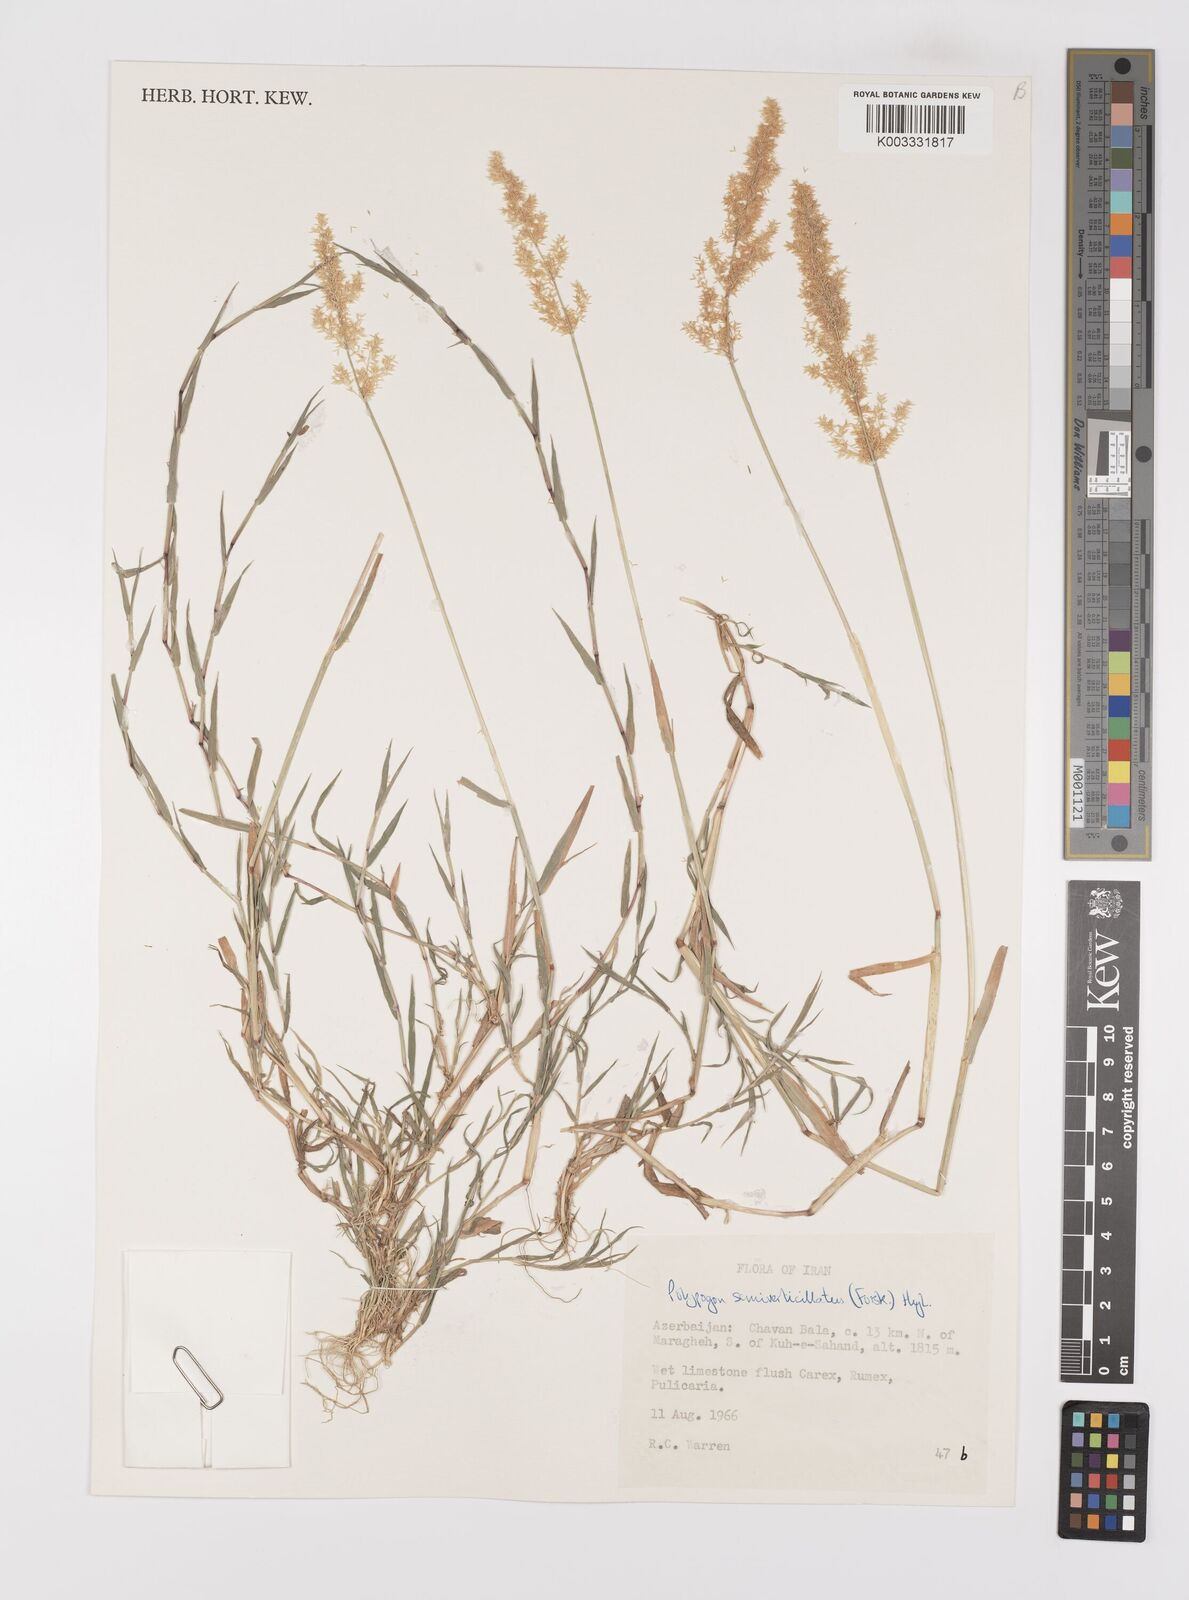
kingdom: Plantae
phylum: Tracheophyta
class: Liliopsida
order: Poales
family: Poaceae
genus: Polypogon
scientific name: Polypogon viridis
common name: Water bent
